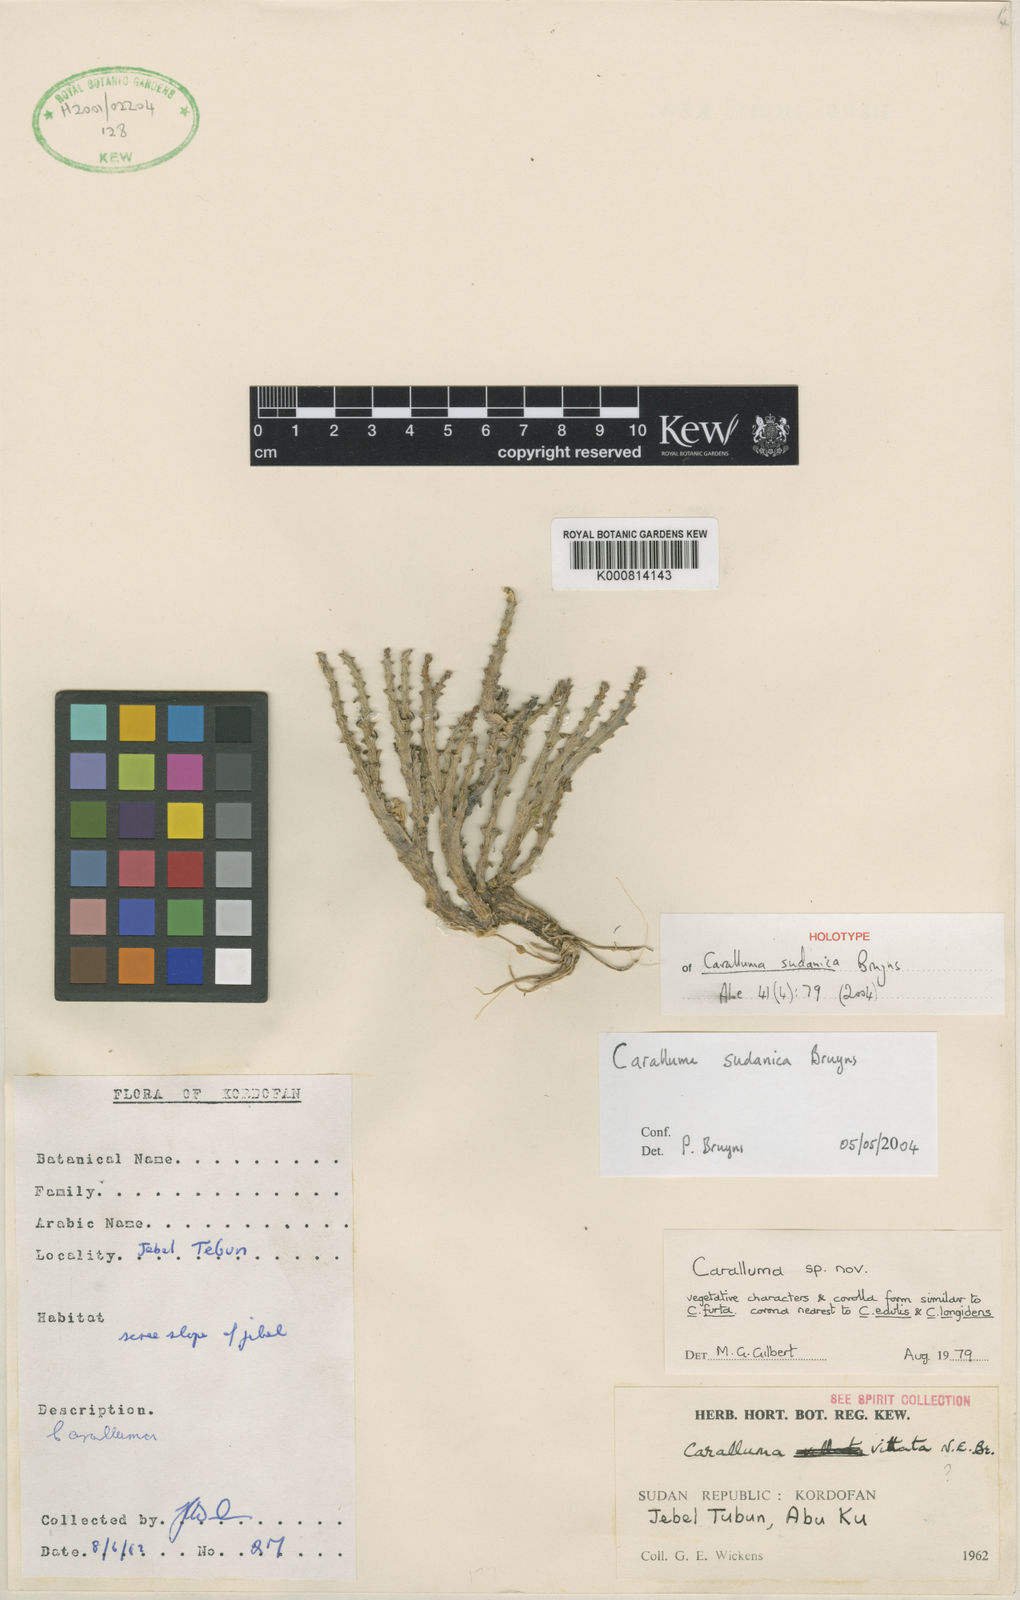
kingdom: Plantae
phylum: Tracheophyta
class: Magnoliopsida
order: Gentianales
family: Apocynaceae
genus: Ceropegia
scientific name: Ceropegia sudanica
